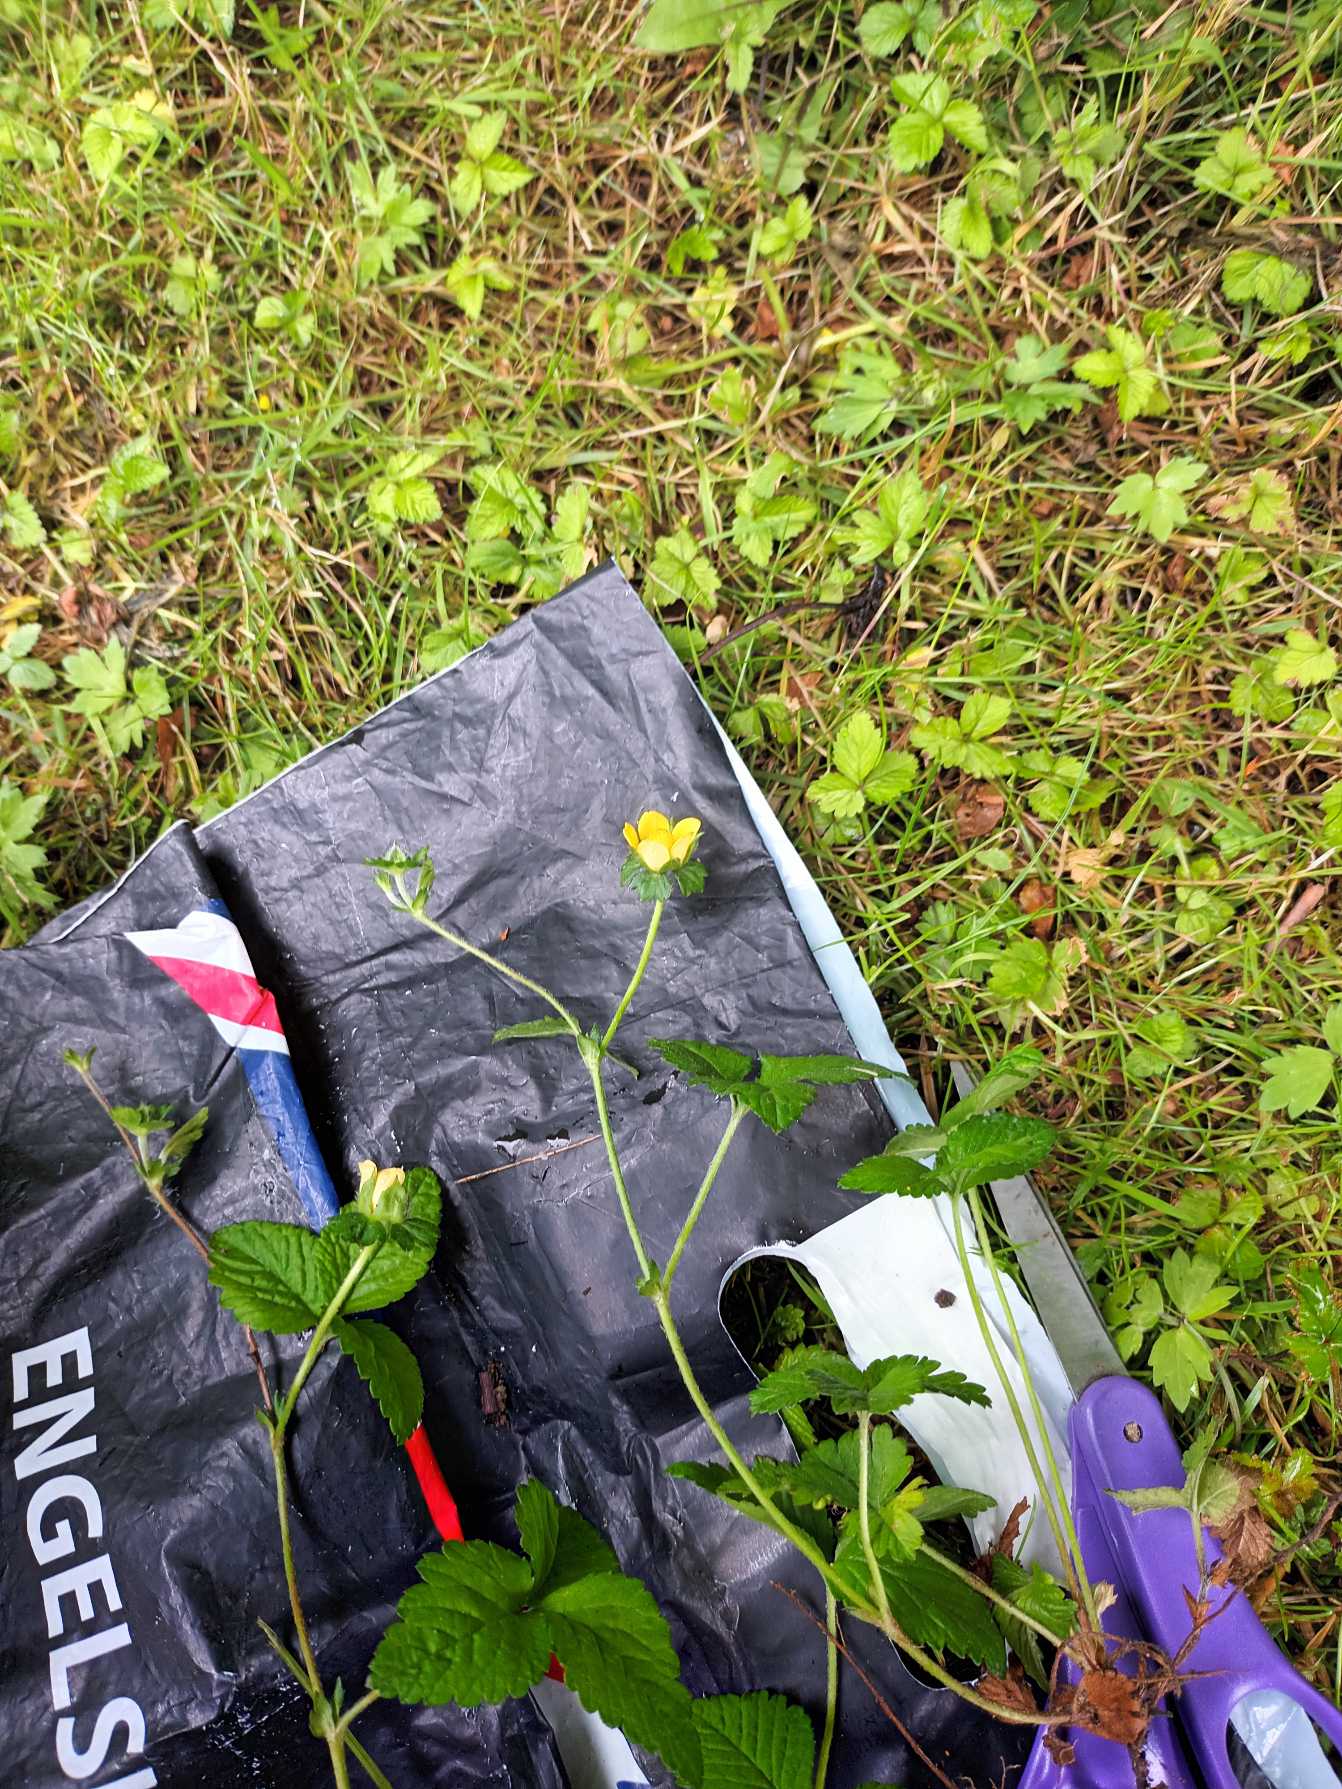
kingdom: Plantae
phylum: Tracheophyta
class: Magnoliopsida
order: Rosales
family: Rosaceae
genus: Potentilla
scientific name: Potentilla indica
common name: Indisk jordbær
